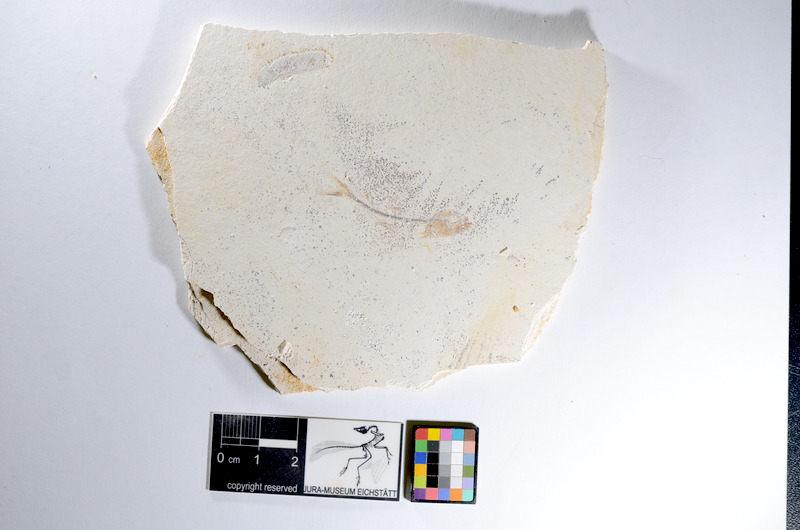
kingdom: Animalia
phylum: Chordata
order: Salmoniformes
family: Orthogonikleithridae
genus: Orthogonikleithrus
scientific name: Orthogonikleithrus hoelli
